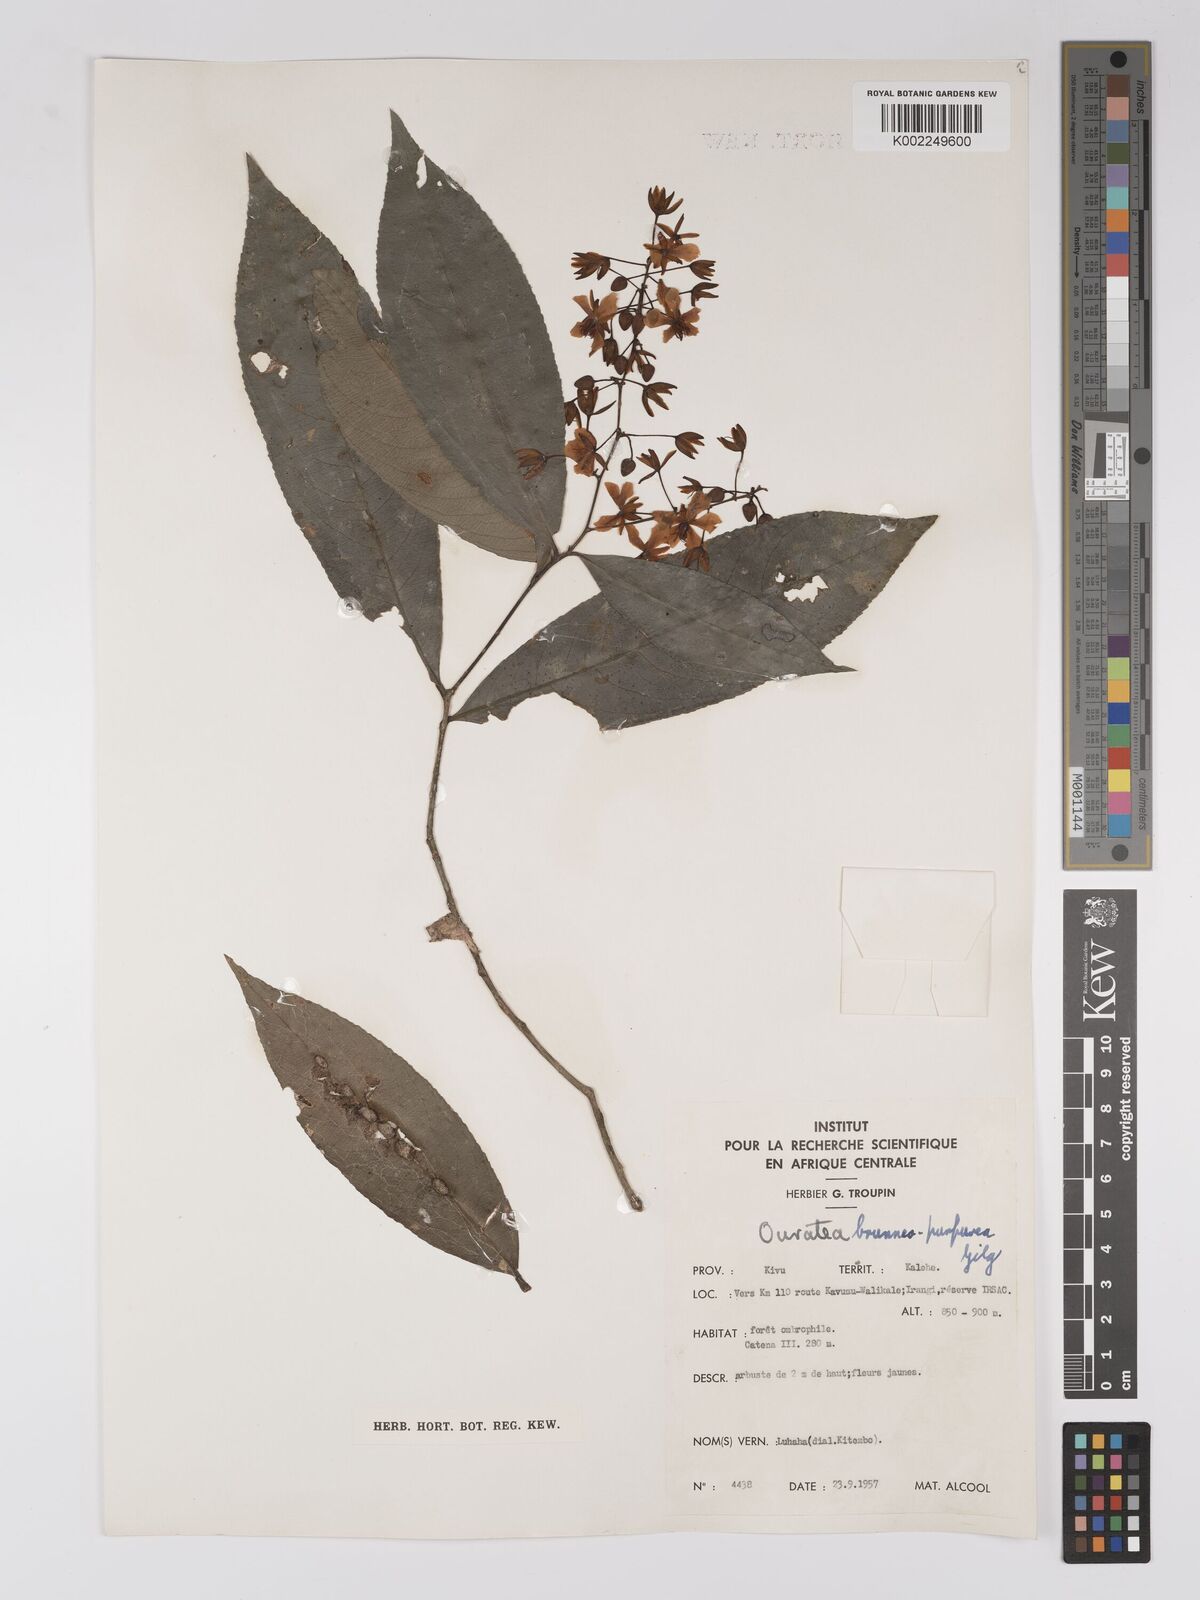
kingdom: Plantae
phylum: Tracheophyta
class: Magnoliopsida
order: Malpighiales
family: Ochnaceae
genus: Campylospermum
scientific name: Campylospermum reticulatum
